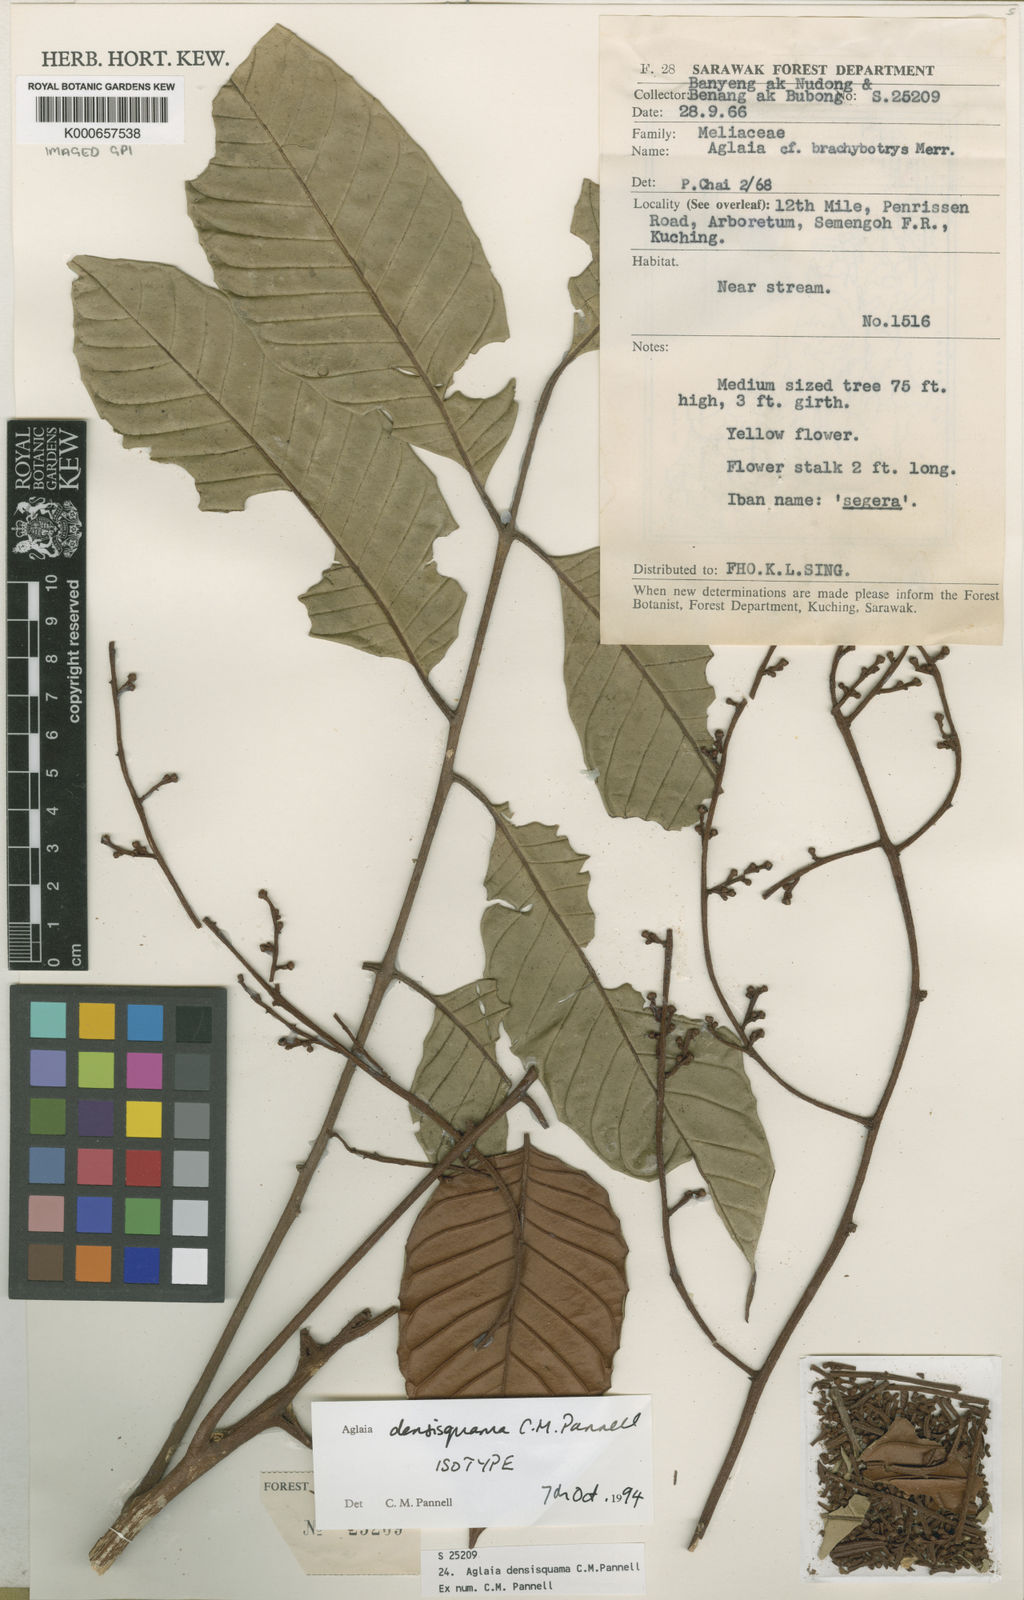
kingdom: Plantae
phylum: Tracheophyta
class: Magnoliopsida
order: Sapindales
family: Meliaceae
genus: Aglaia
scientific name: Aglaia densisquama
